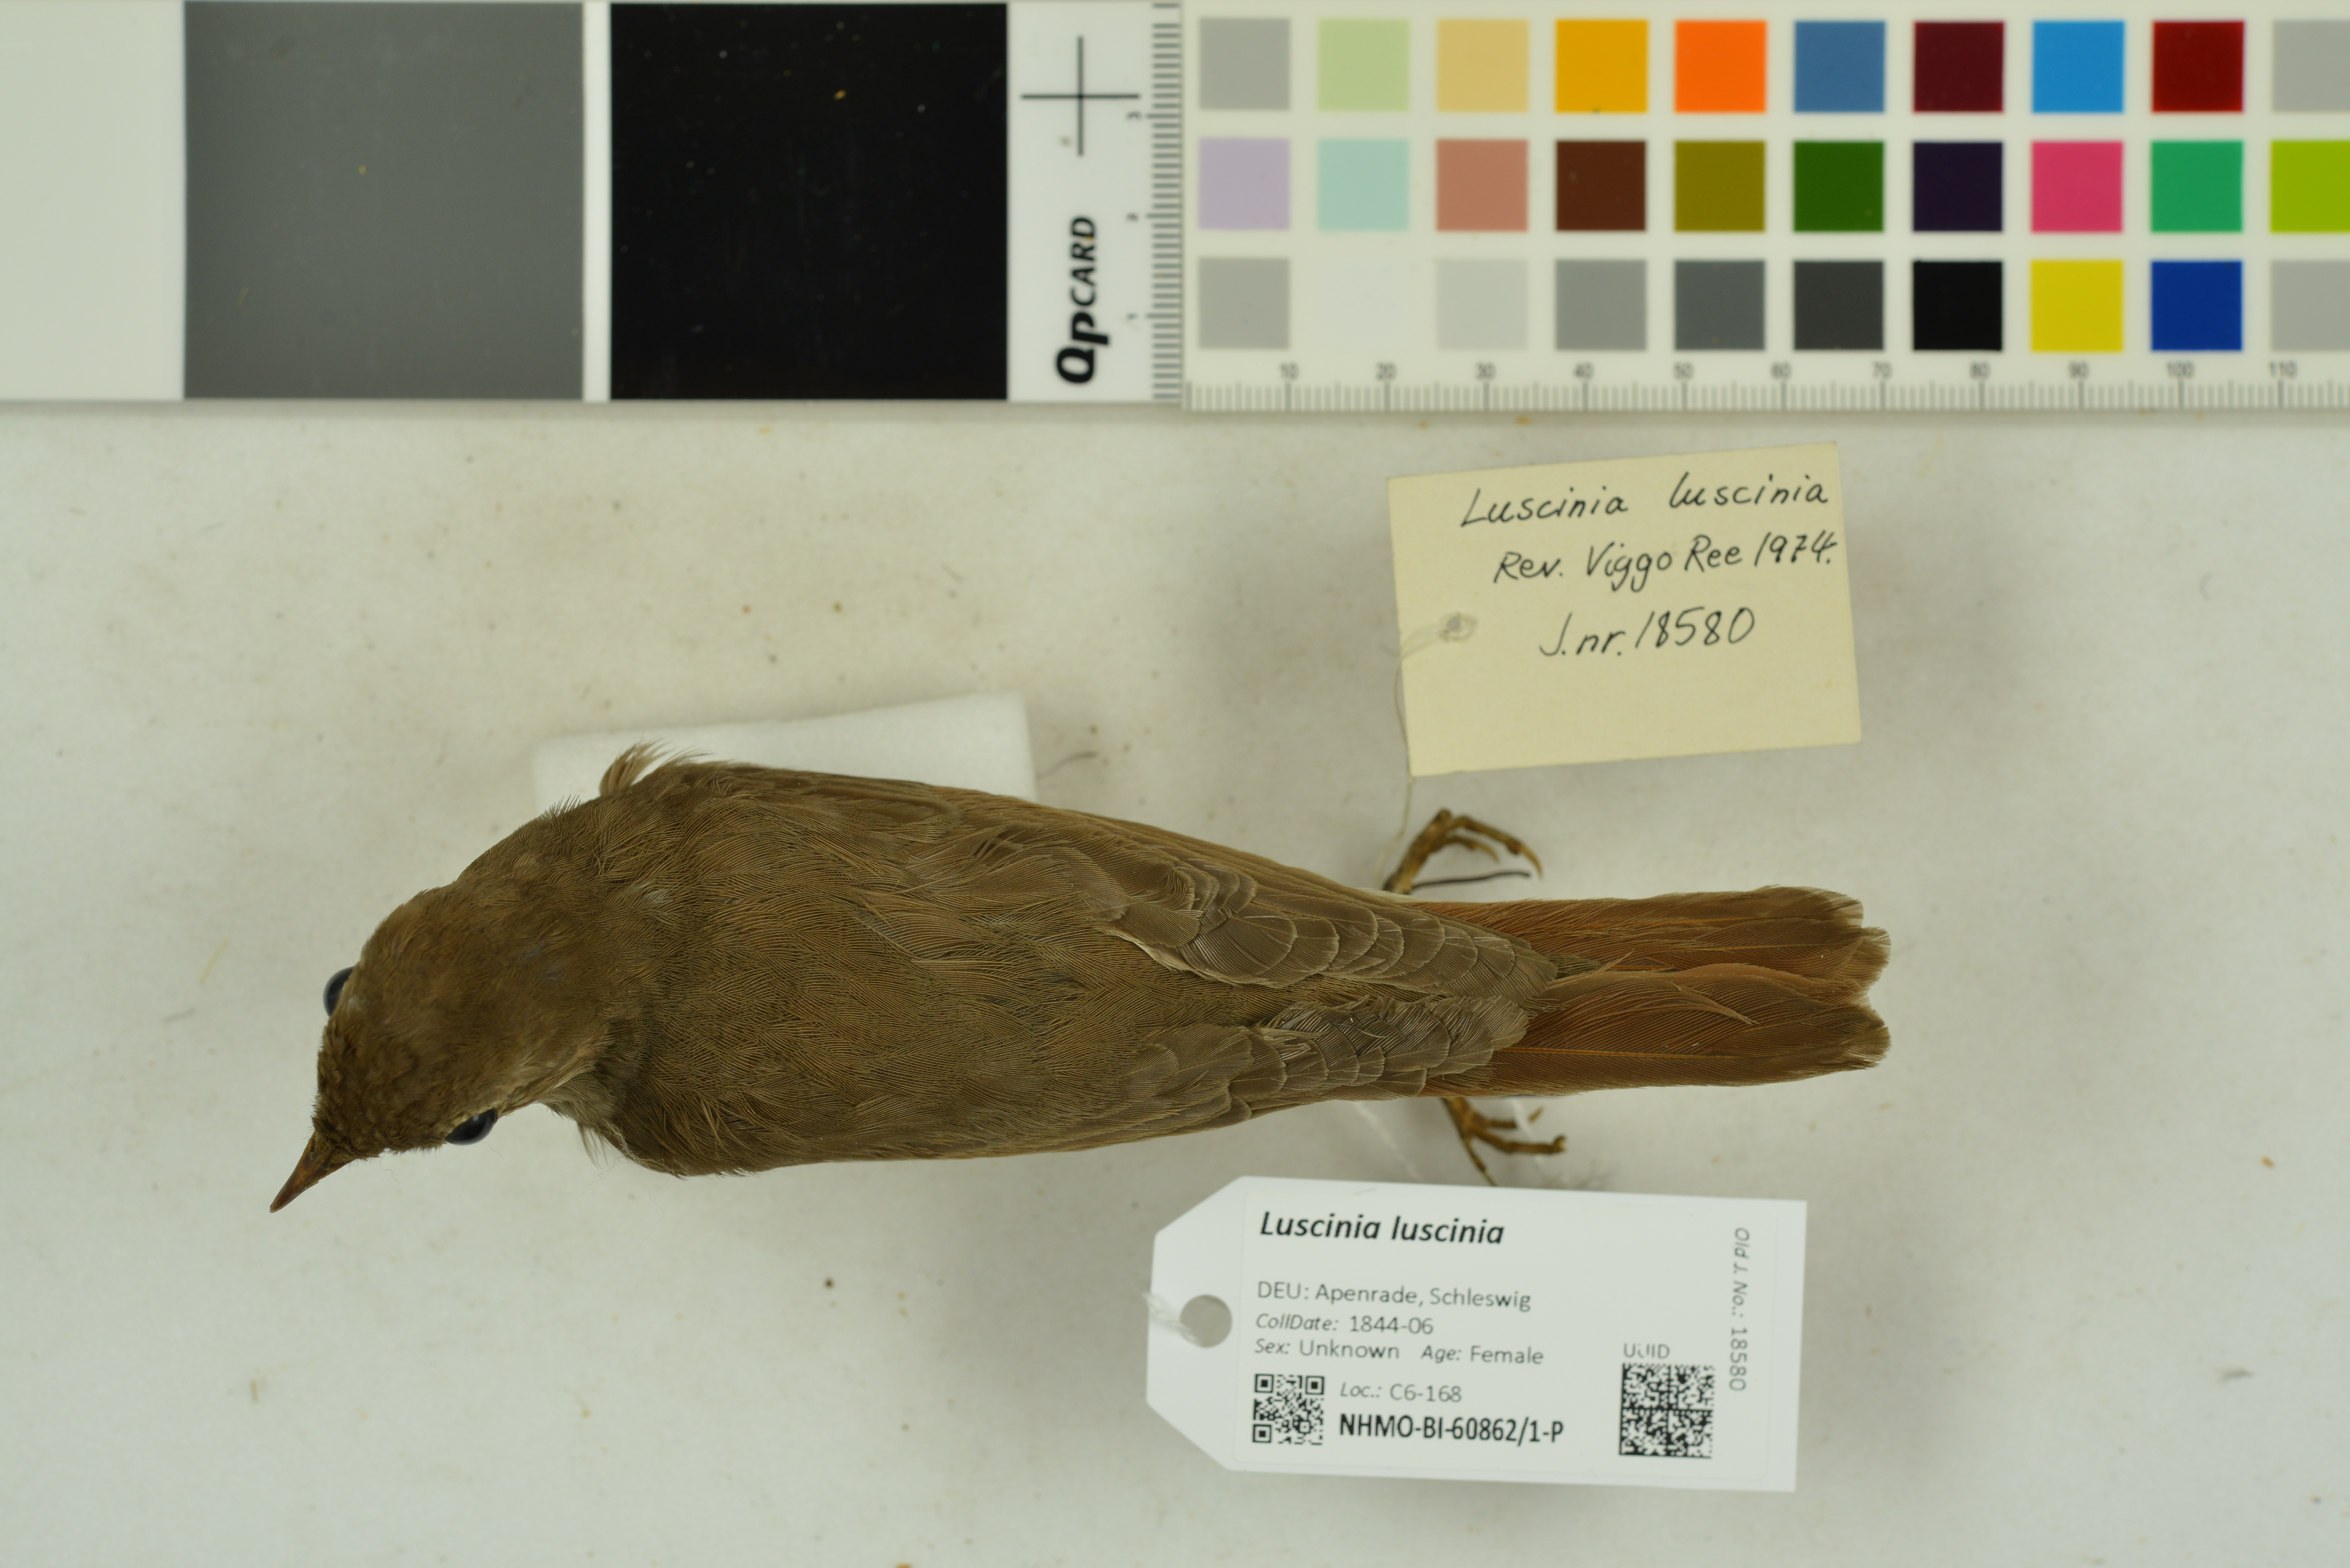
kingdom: Animalia
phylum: Chordata
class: Aves
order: Passeriformes
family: Muscicapidae
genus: Luscinia
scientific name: Luscinia luscinia
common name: Thrush nightingale
